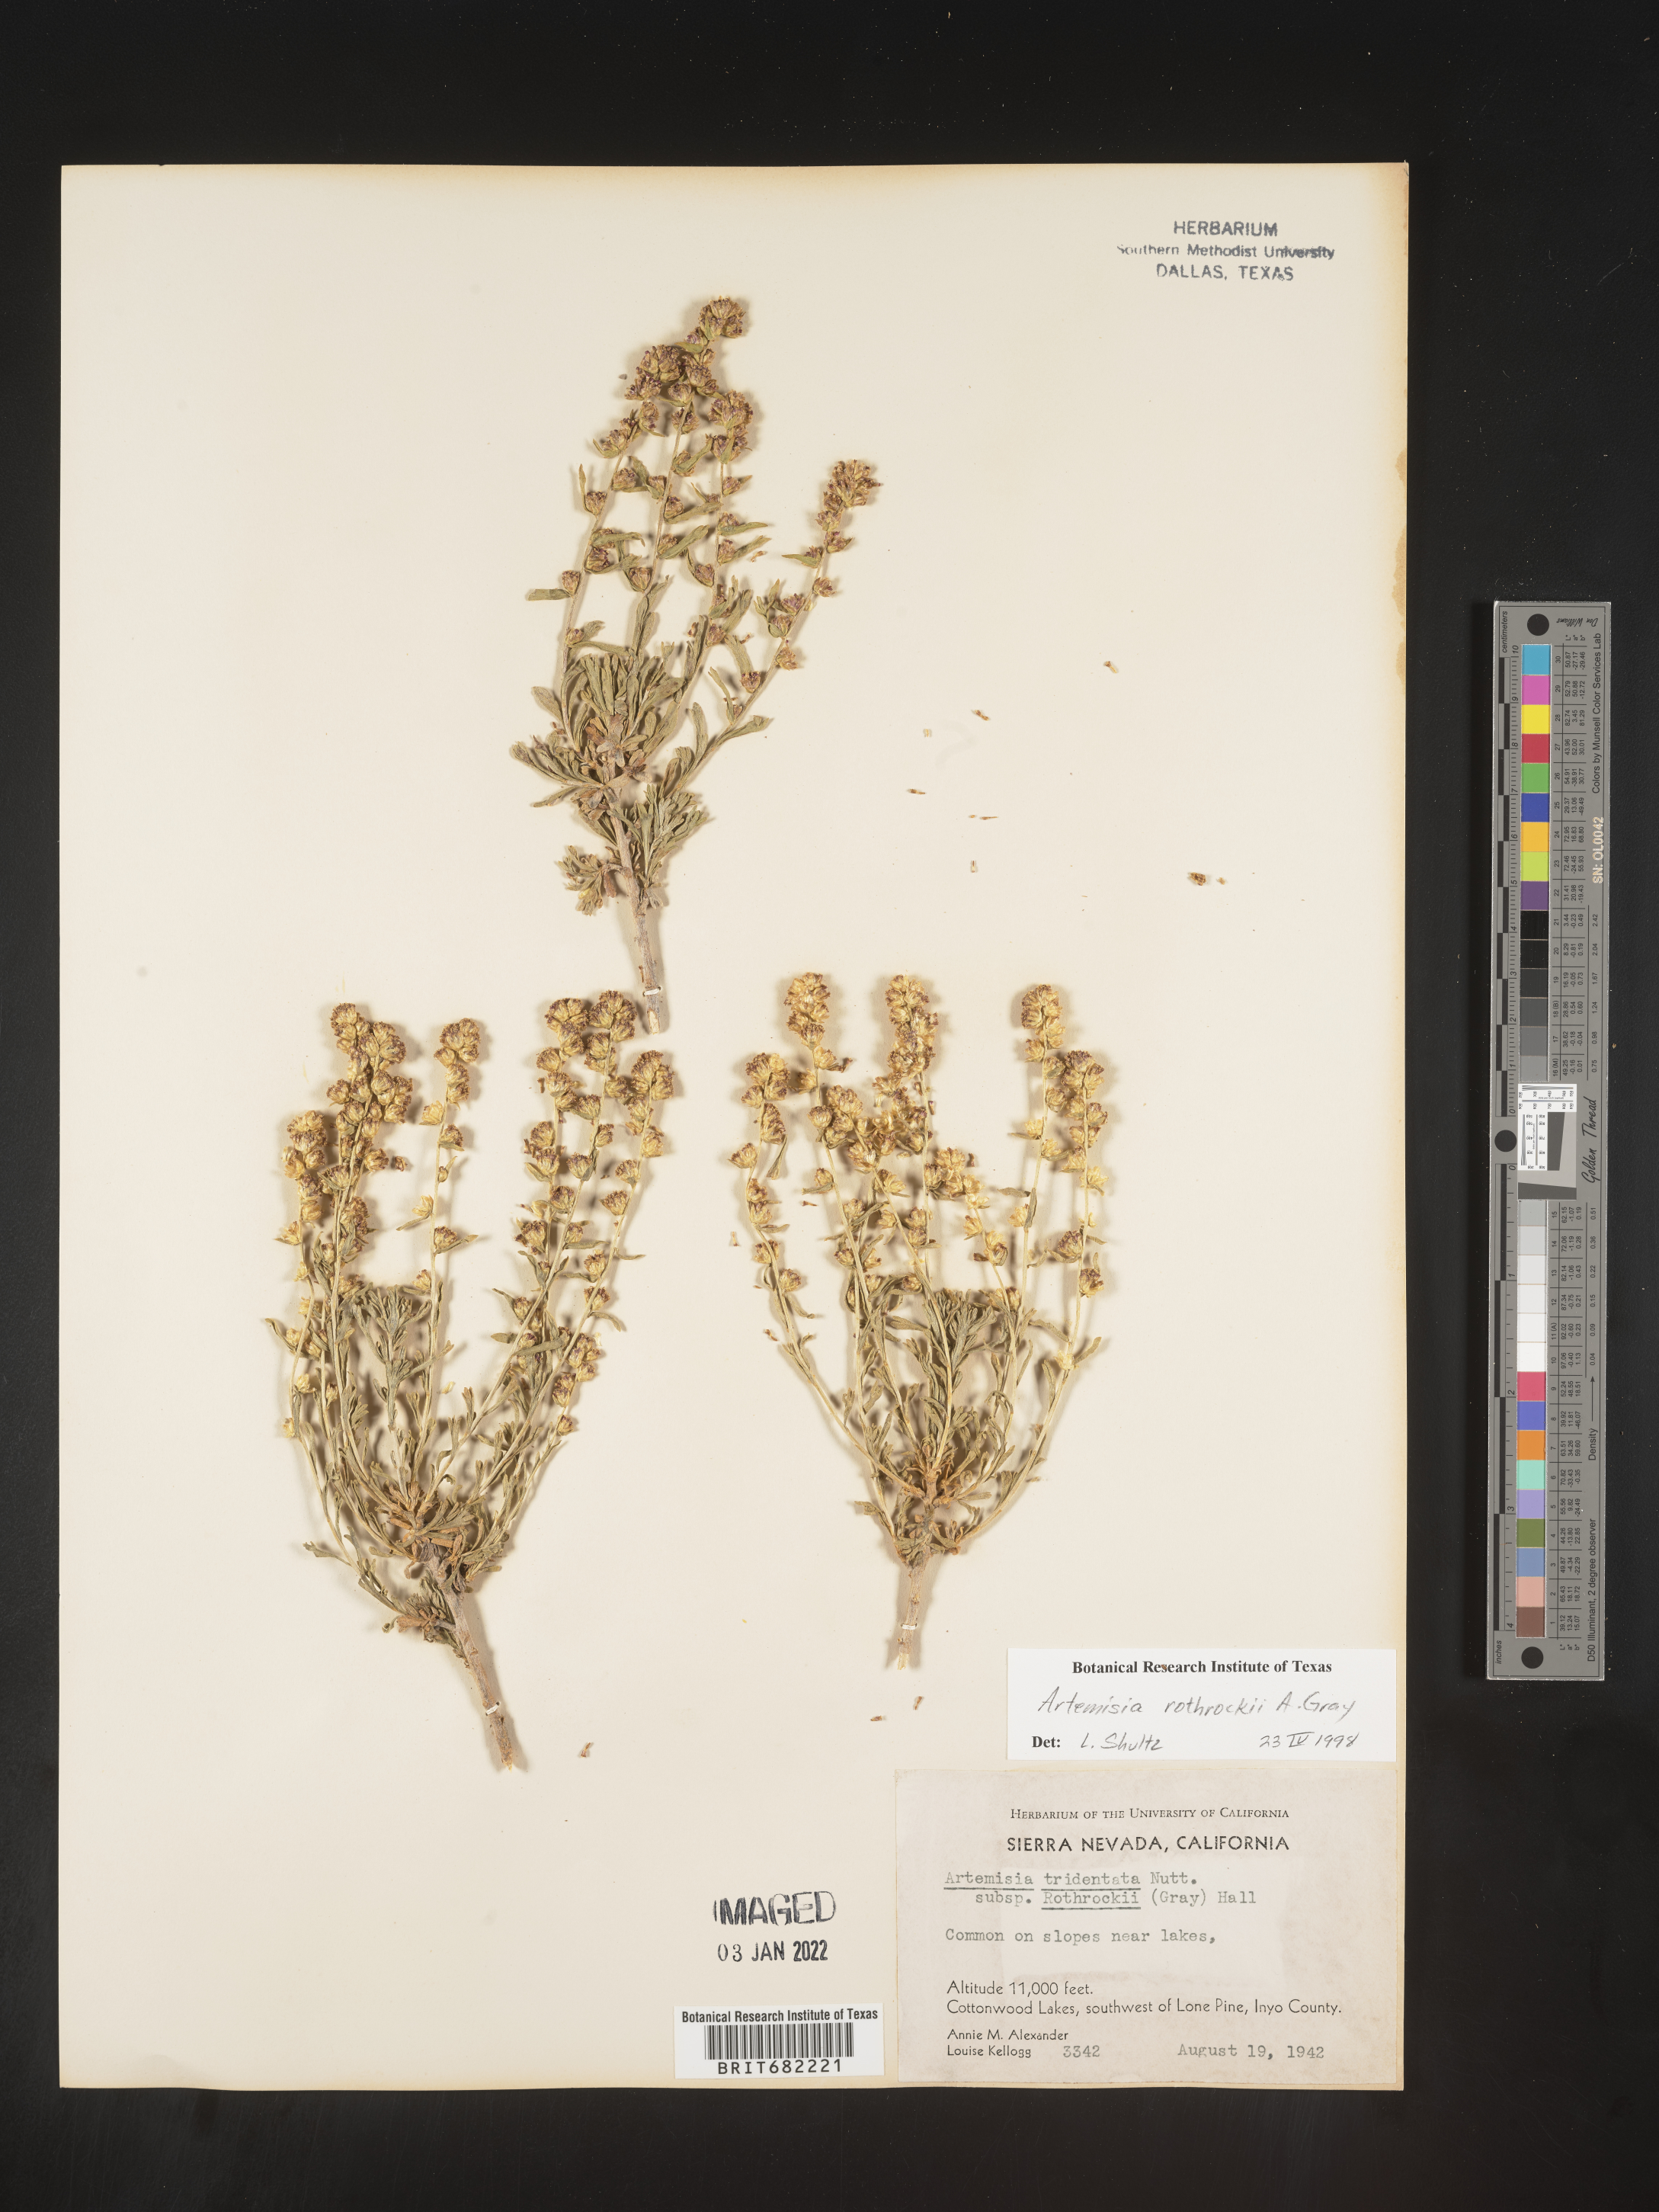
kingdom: Plantae
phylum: Tracheophyta
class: Magnoliopsida
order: Asterales
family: Asteraceae
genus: Artemisia
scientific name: Artemisia rothrockii
